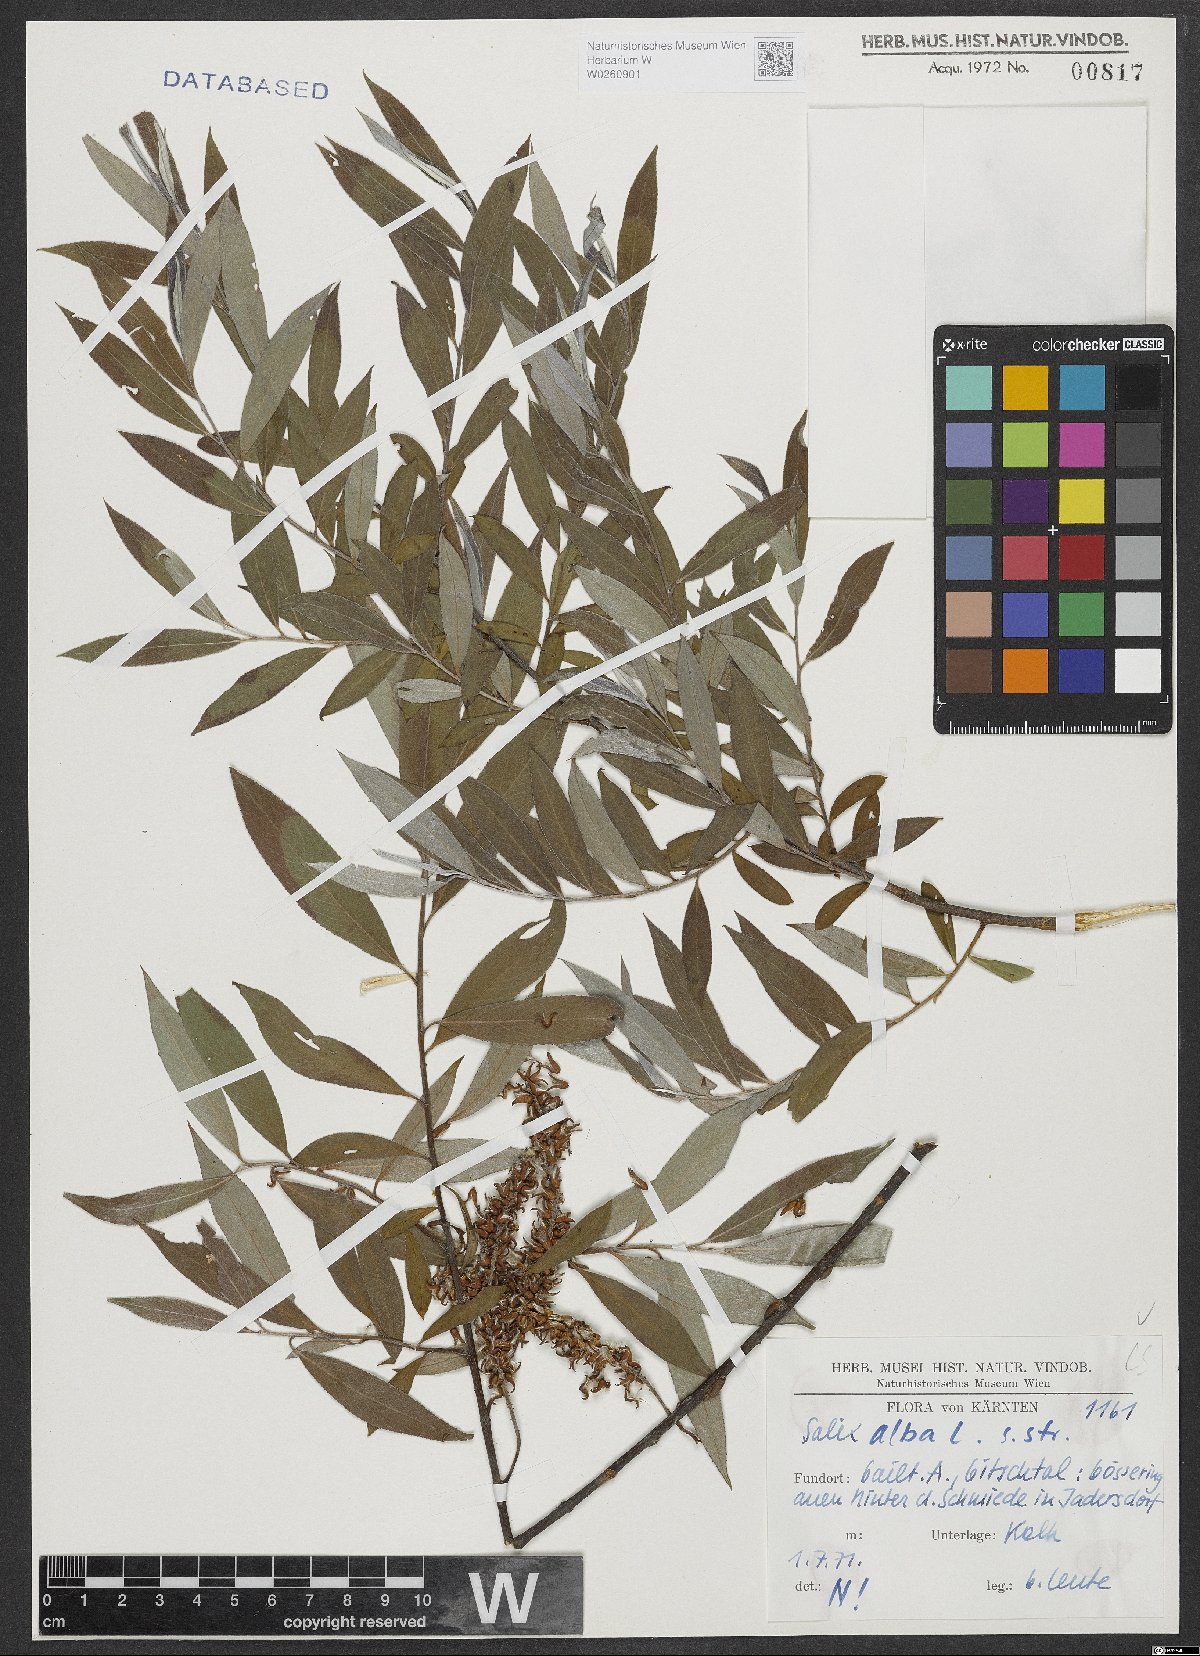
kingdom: Plantae
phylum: Tracheophyta
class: Magnoliopsida
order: Malpighiales
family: Salicaceae
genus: Salix
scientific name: Salix alba
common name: White willow
